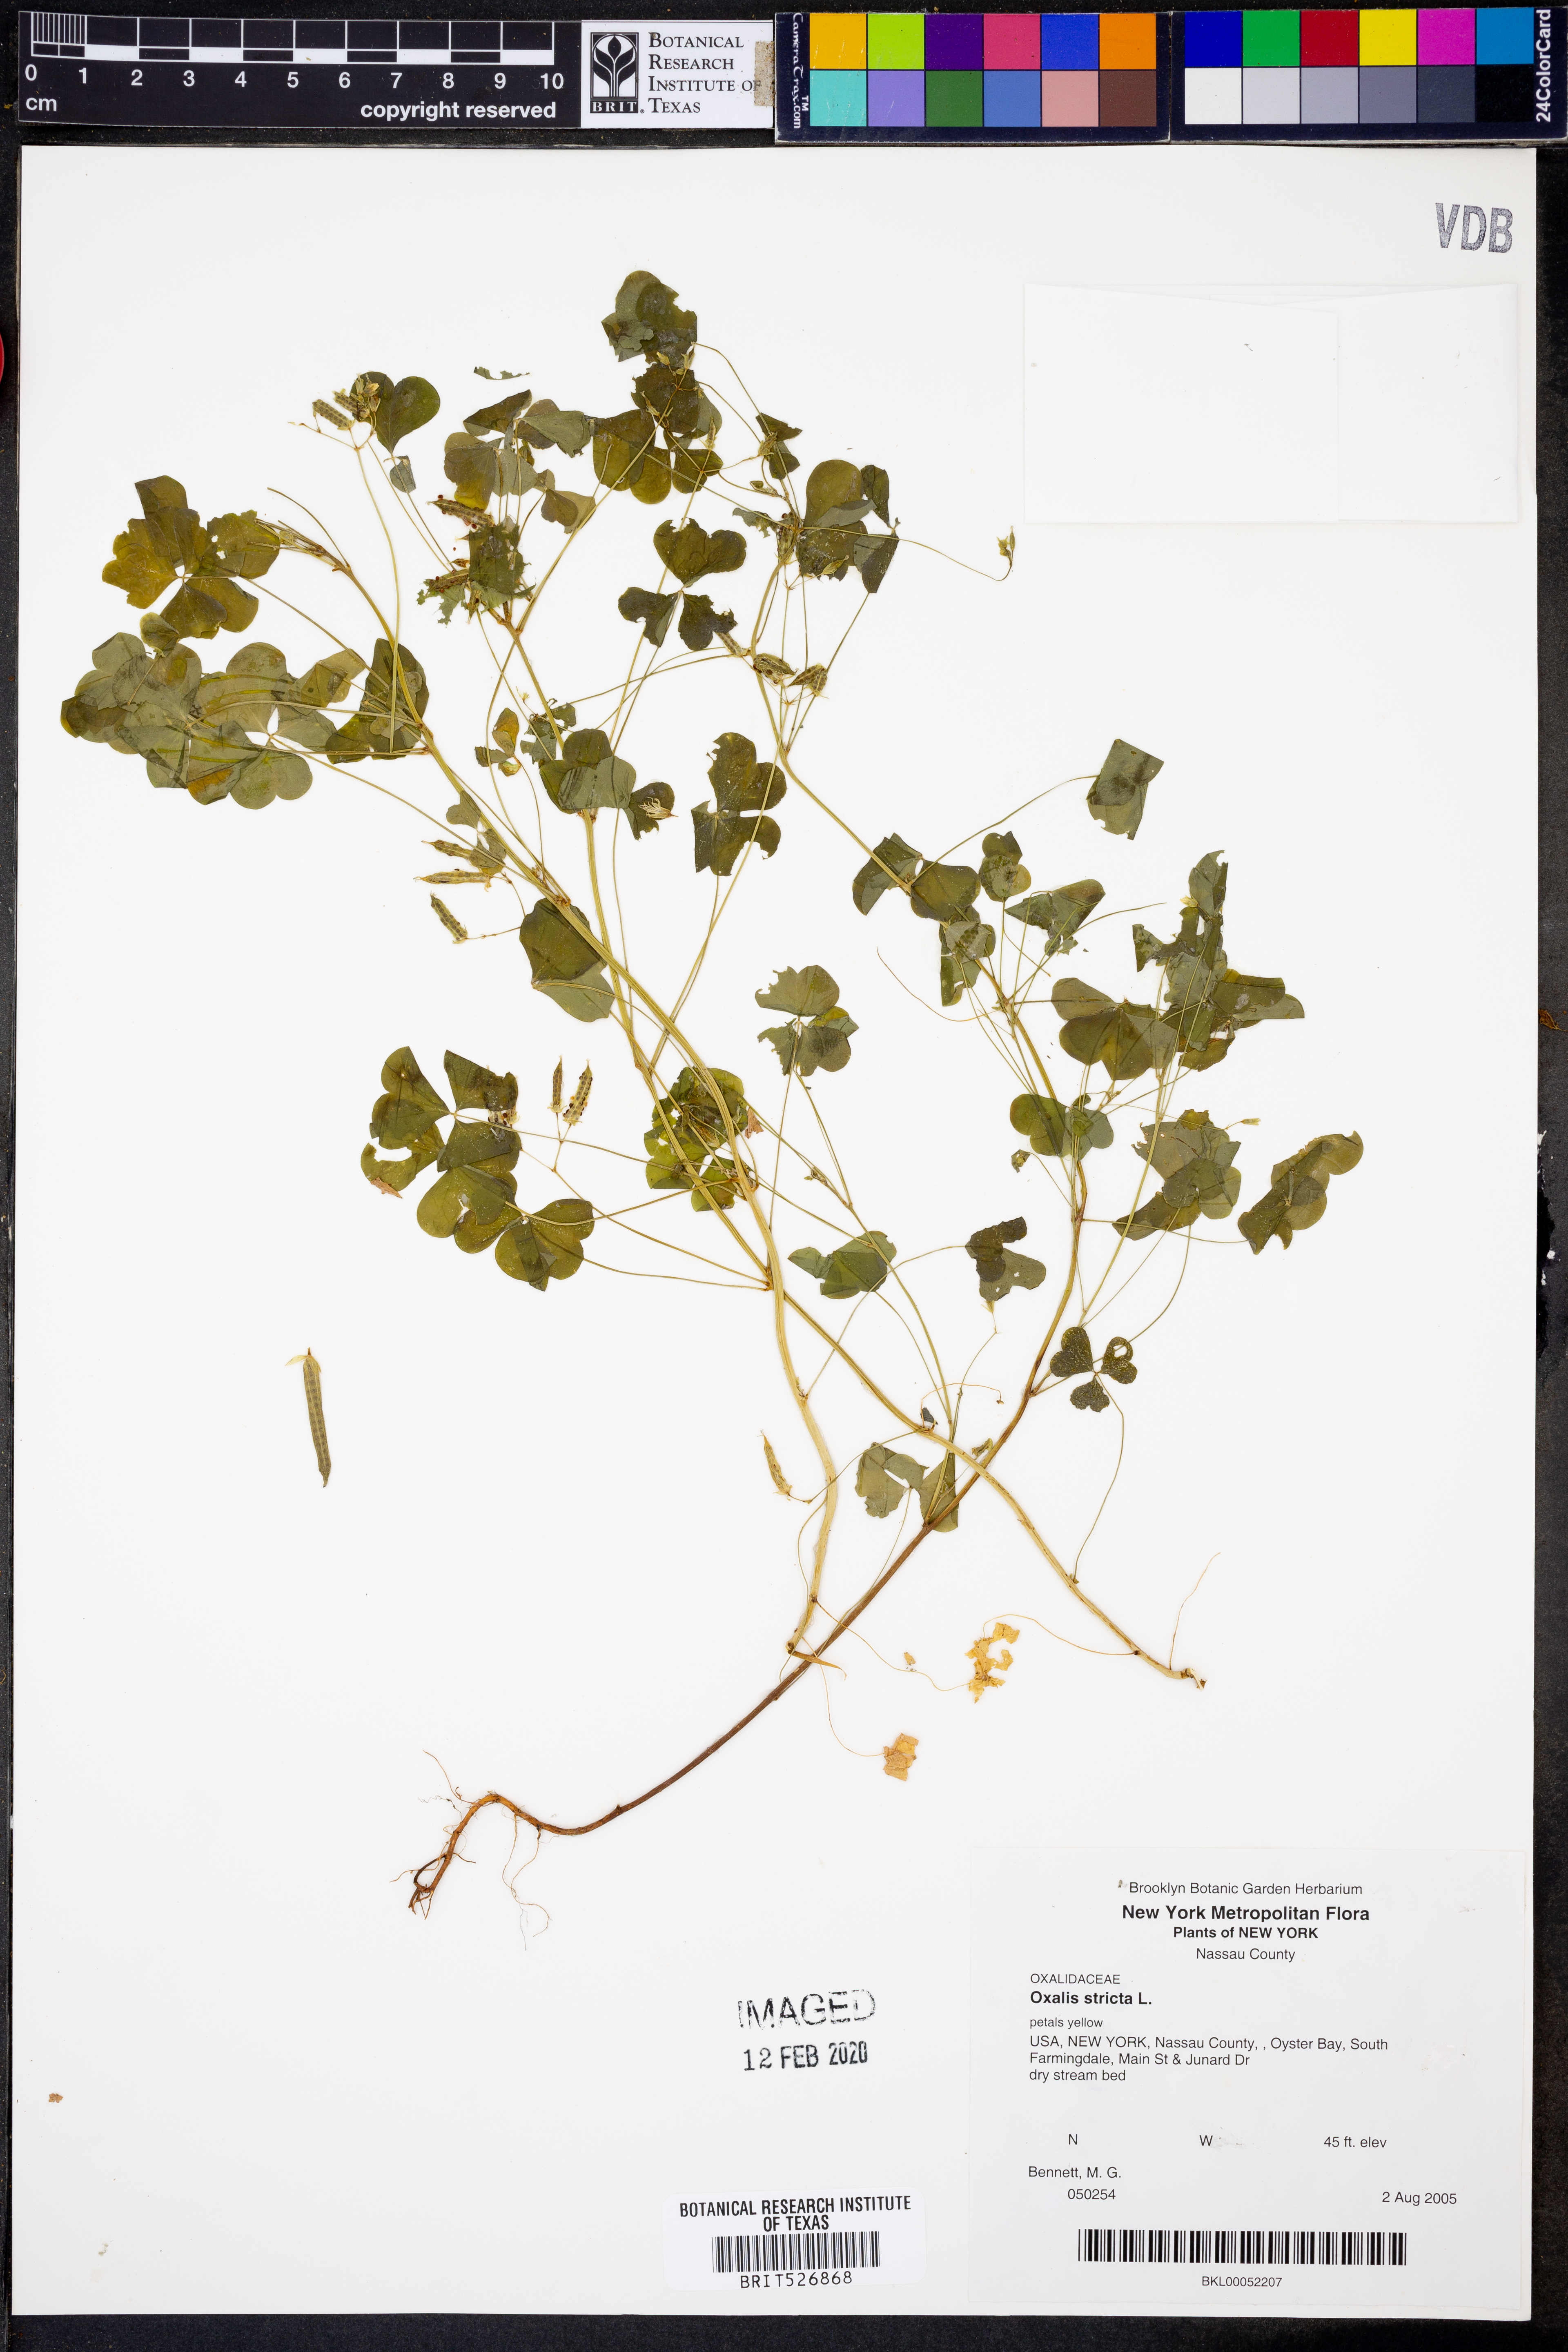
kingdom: Plantae
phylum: Tracheophyta
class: Magnoliopsida
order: Oxalidales
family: Oxalidaceae
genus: Oxalis
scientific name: Oxalis stricta
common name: Upright yellow-sorrel
